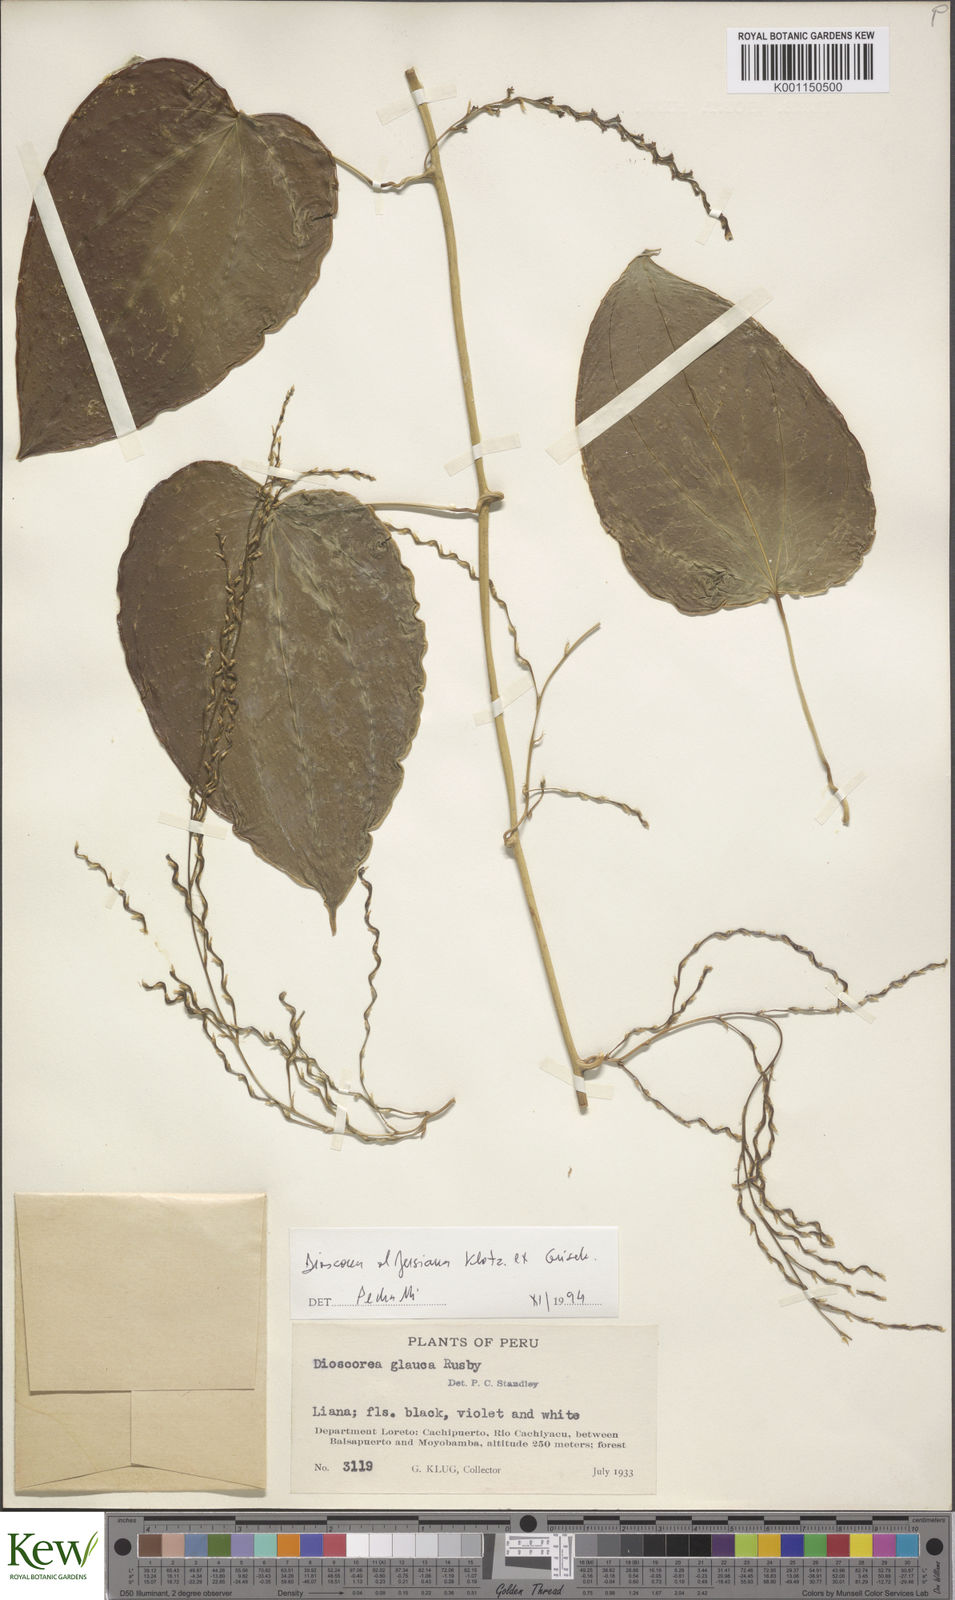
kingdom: Plantae
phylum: Tracheophyta
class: Liliopsida
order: Dioscoreales
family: Dioscoreaceae
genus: Dioscorea
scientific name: Dioscorea glauca
